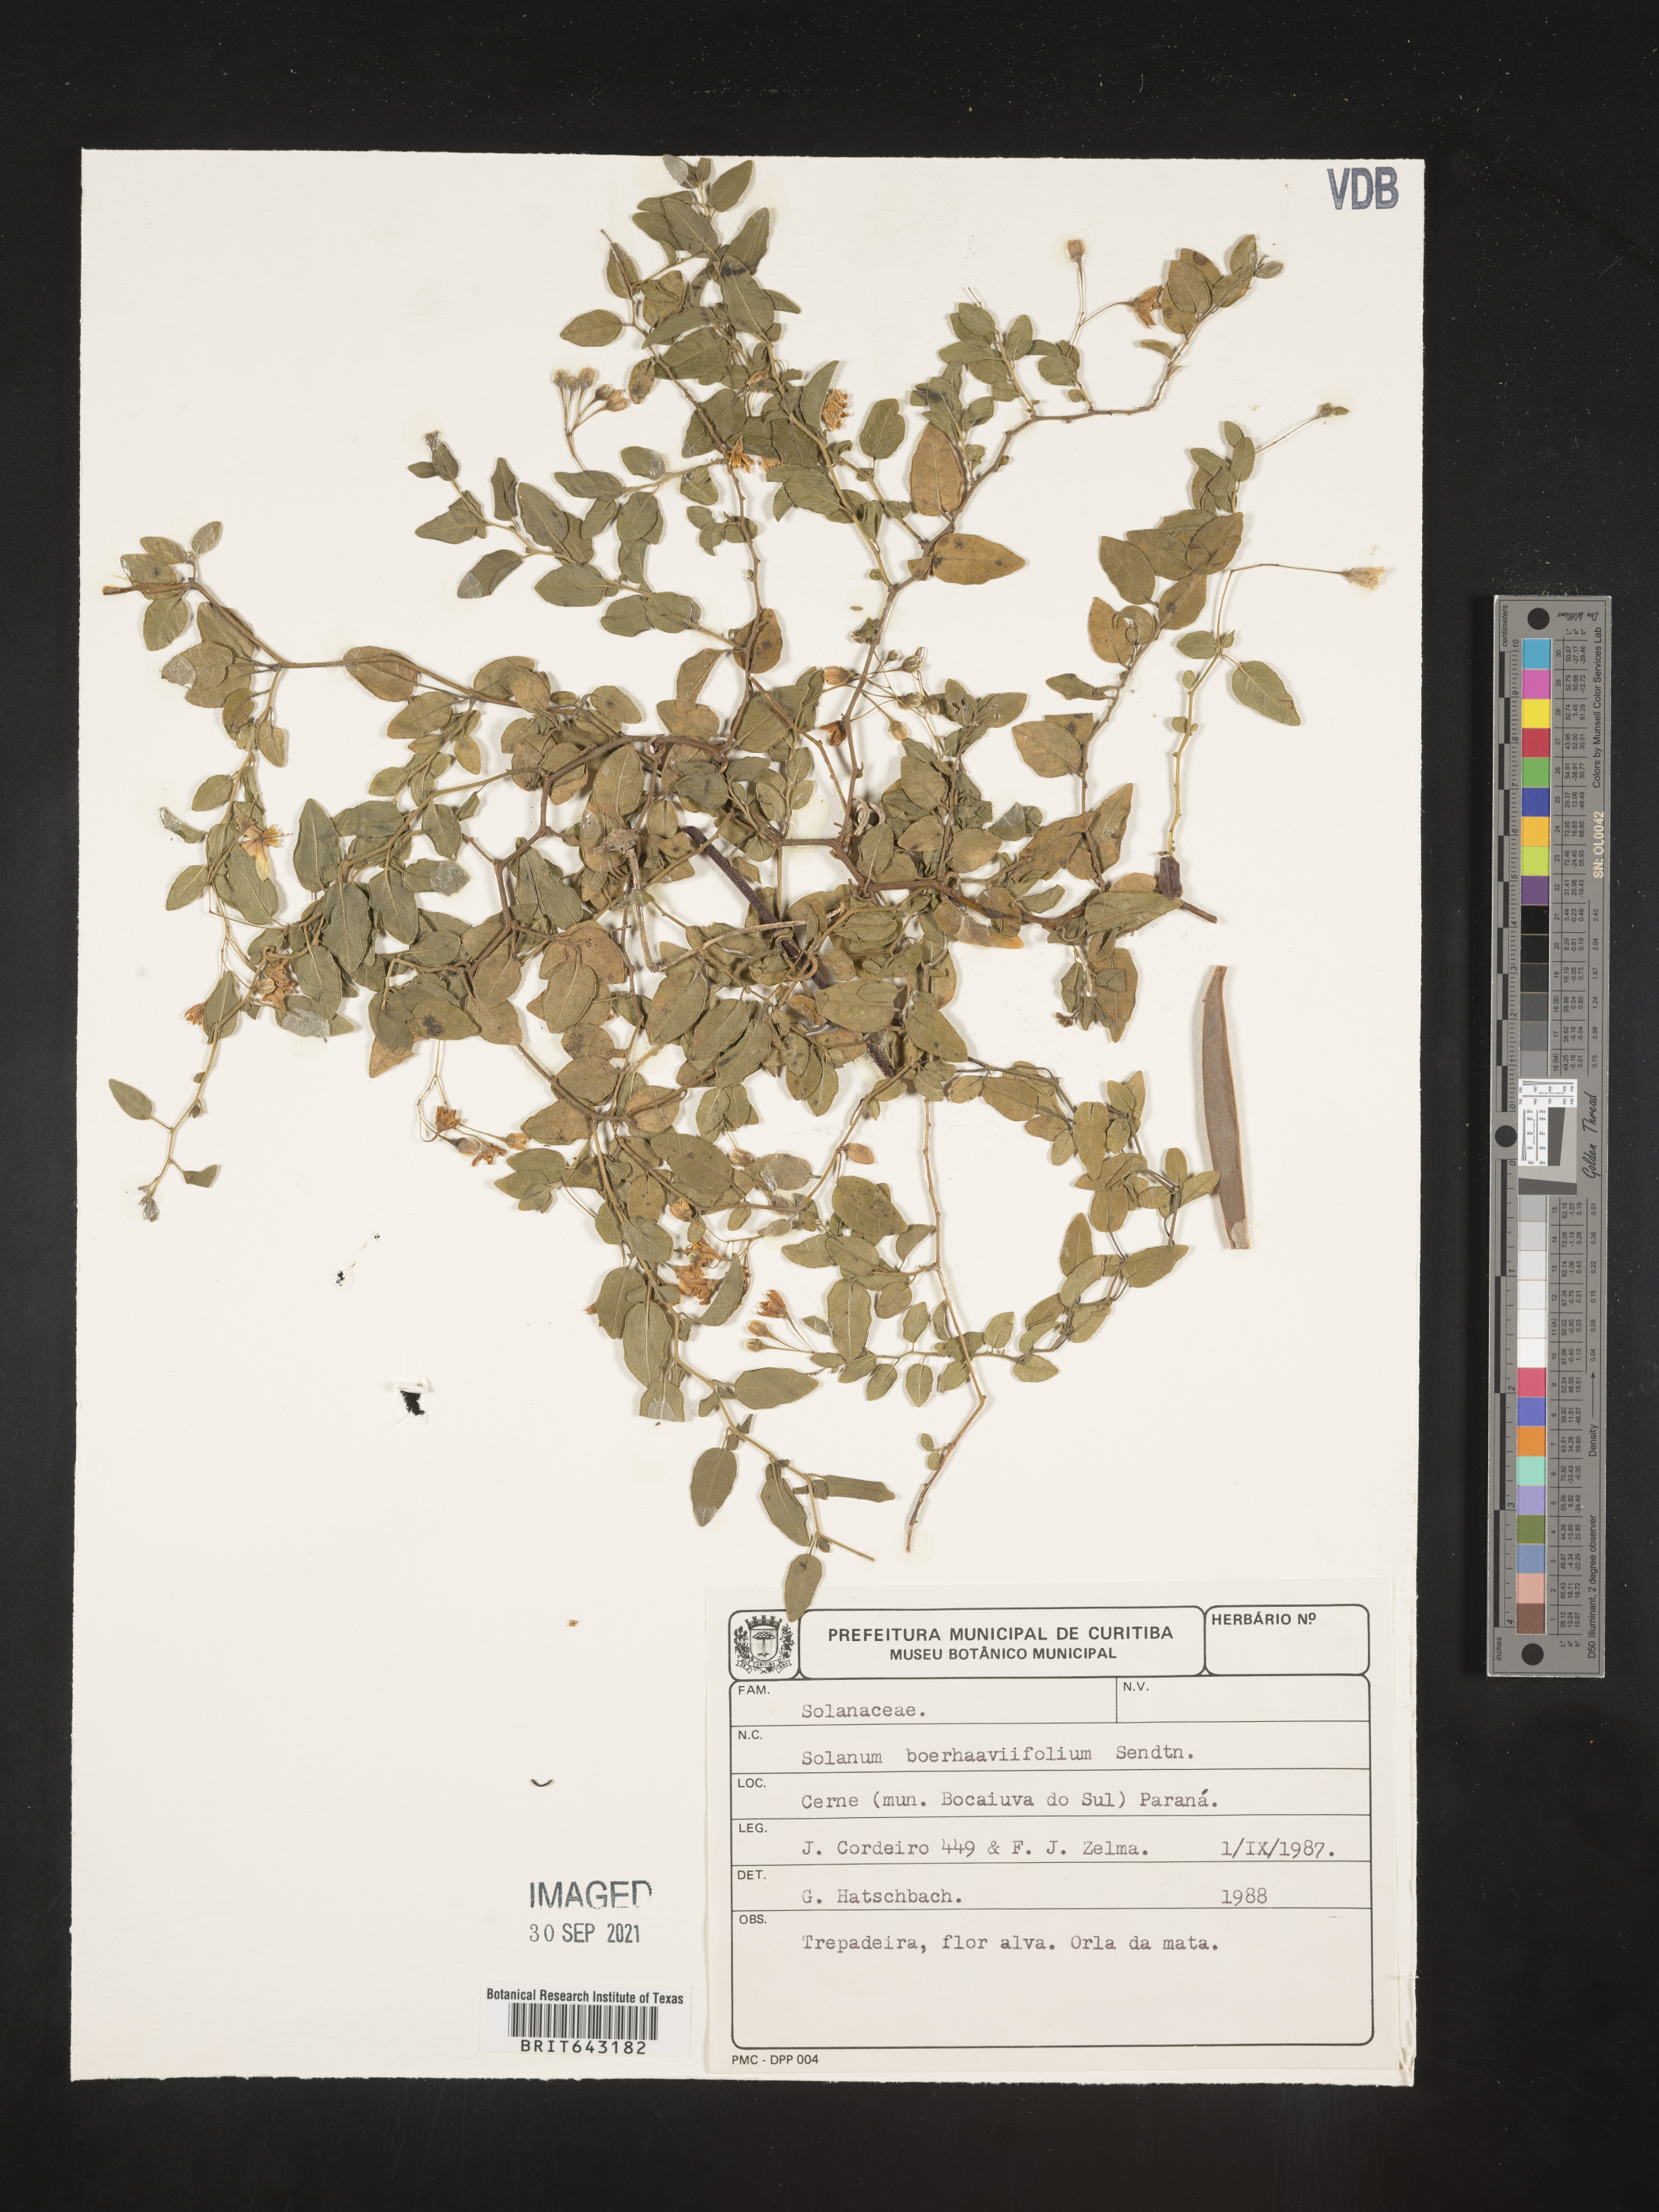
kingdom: Plantae
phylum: Tracheophyta
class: Magnoliopsida
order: Solanales
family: Solanaceae
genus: Solanum
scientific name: Solanum
